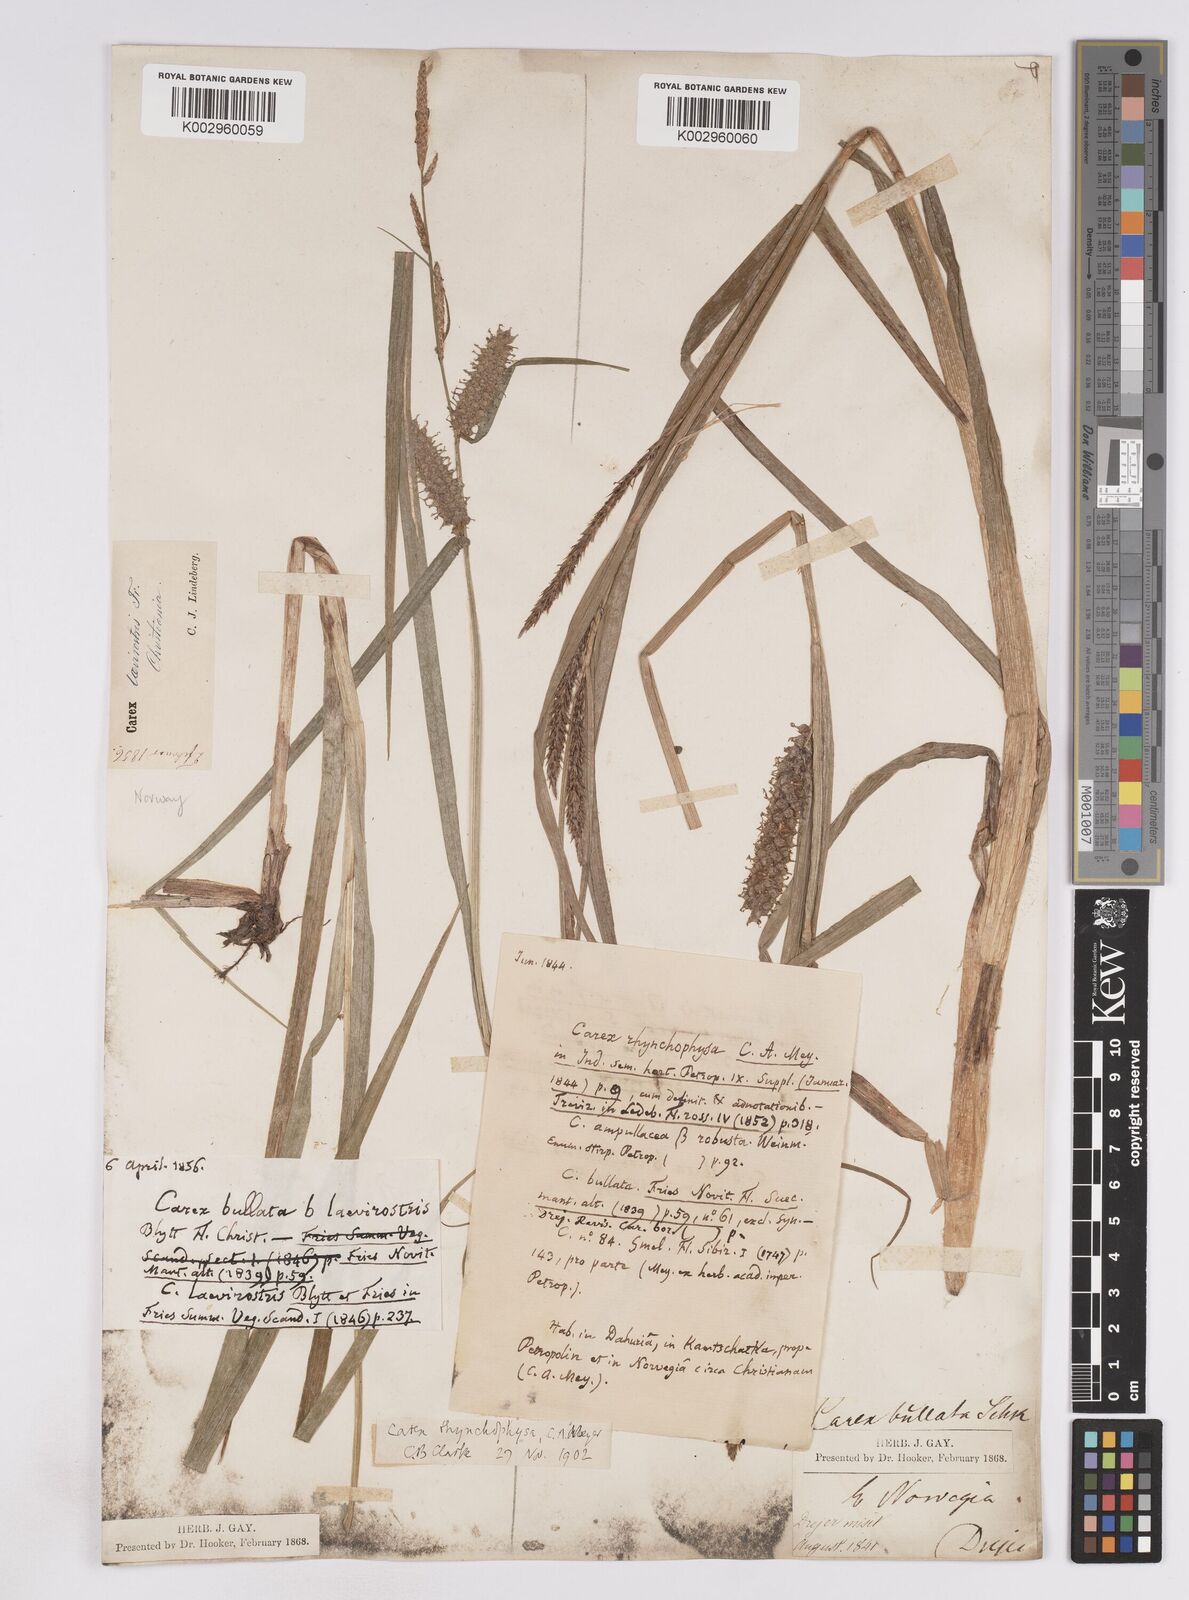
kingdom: Plantae
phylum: Tracheophyta
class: Liliopsida
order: Poales
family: Cyperaceae
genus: Carex
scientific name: Carex utriculata
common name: Beaked sedge
